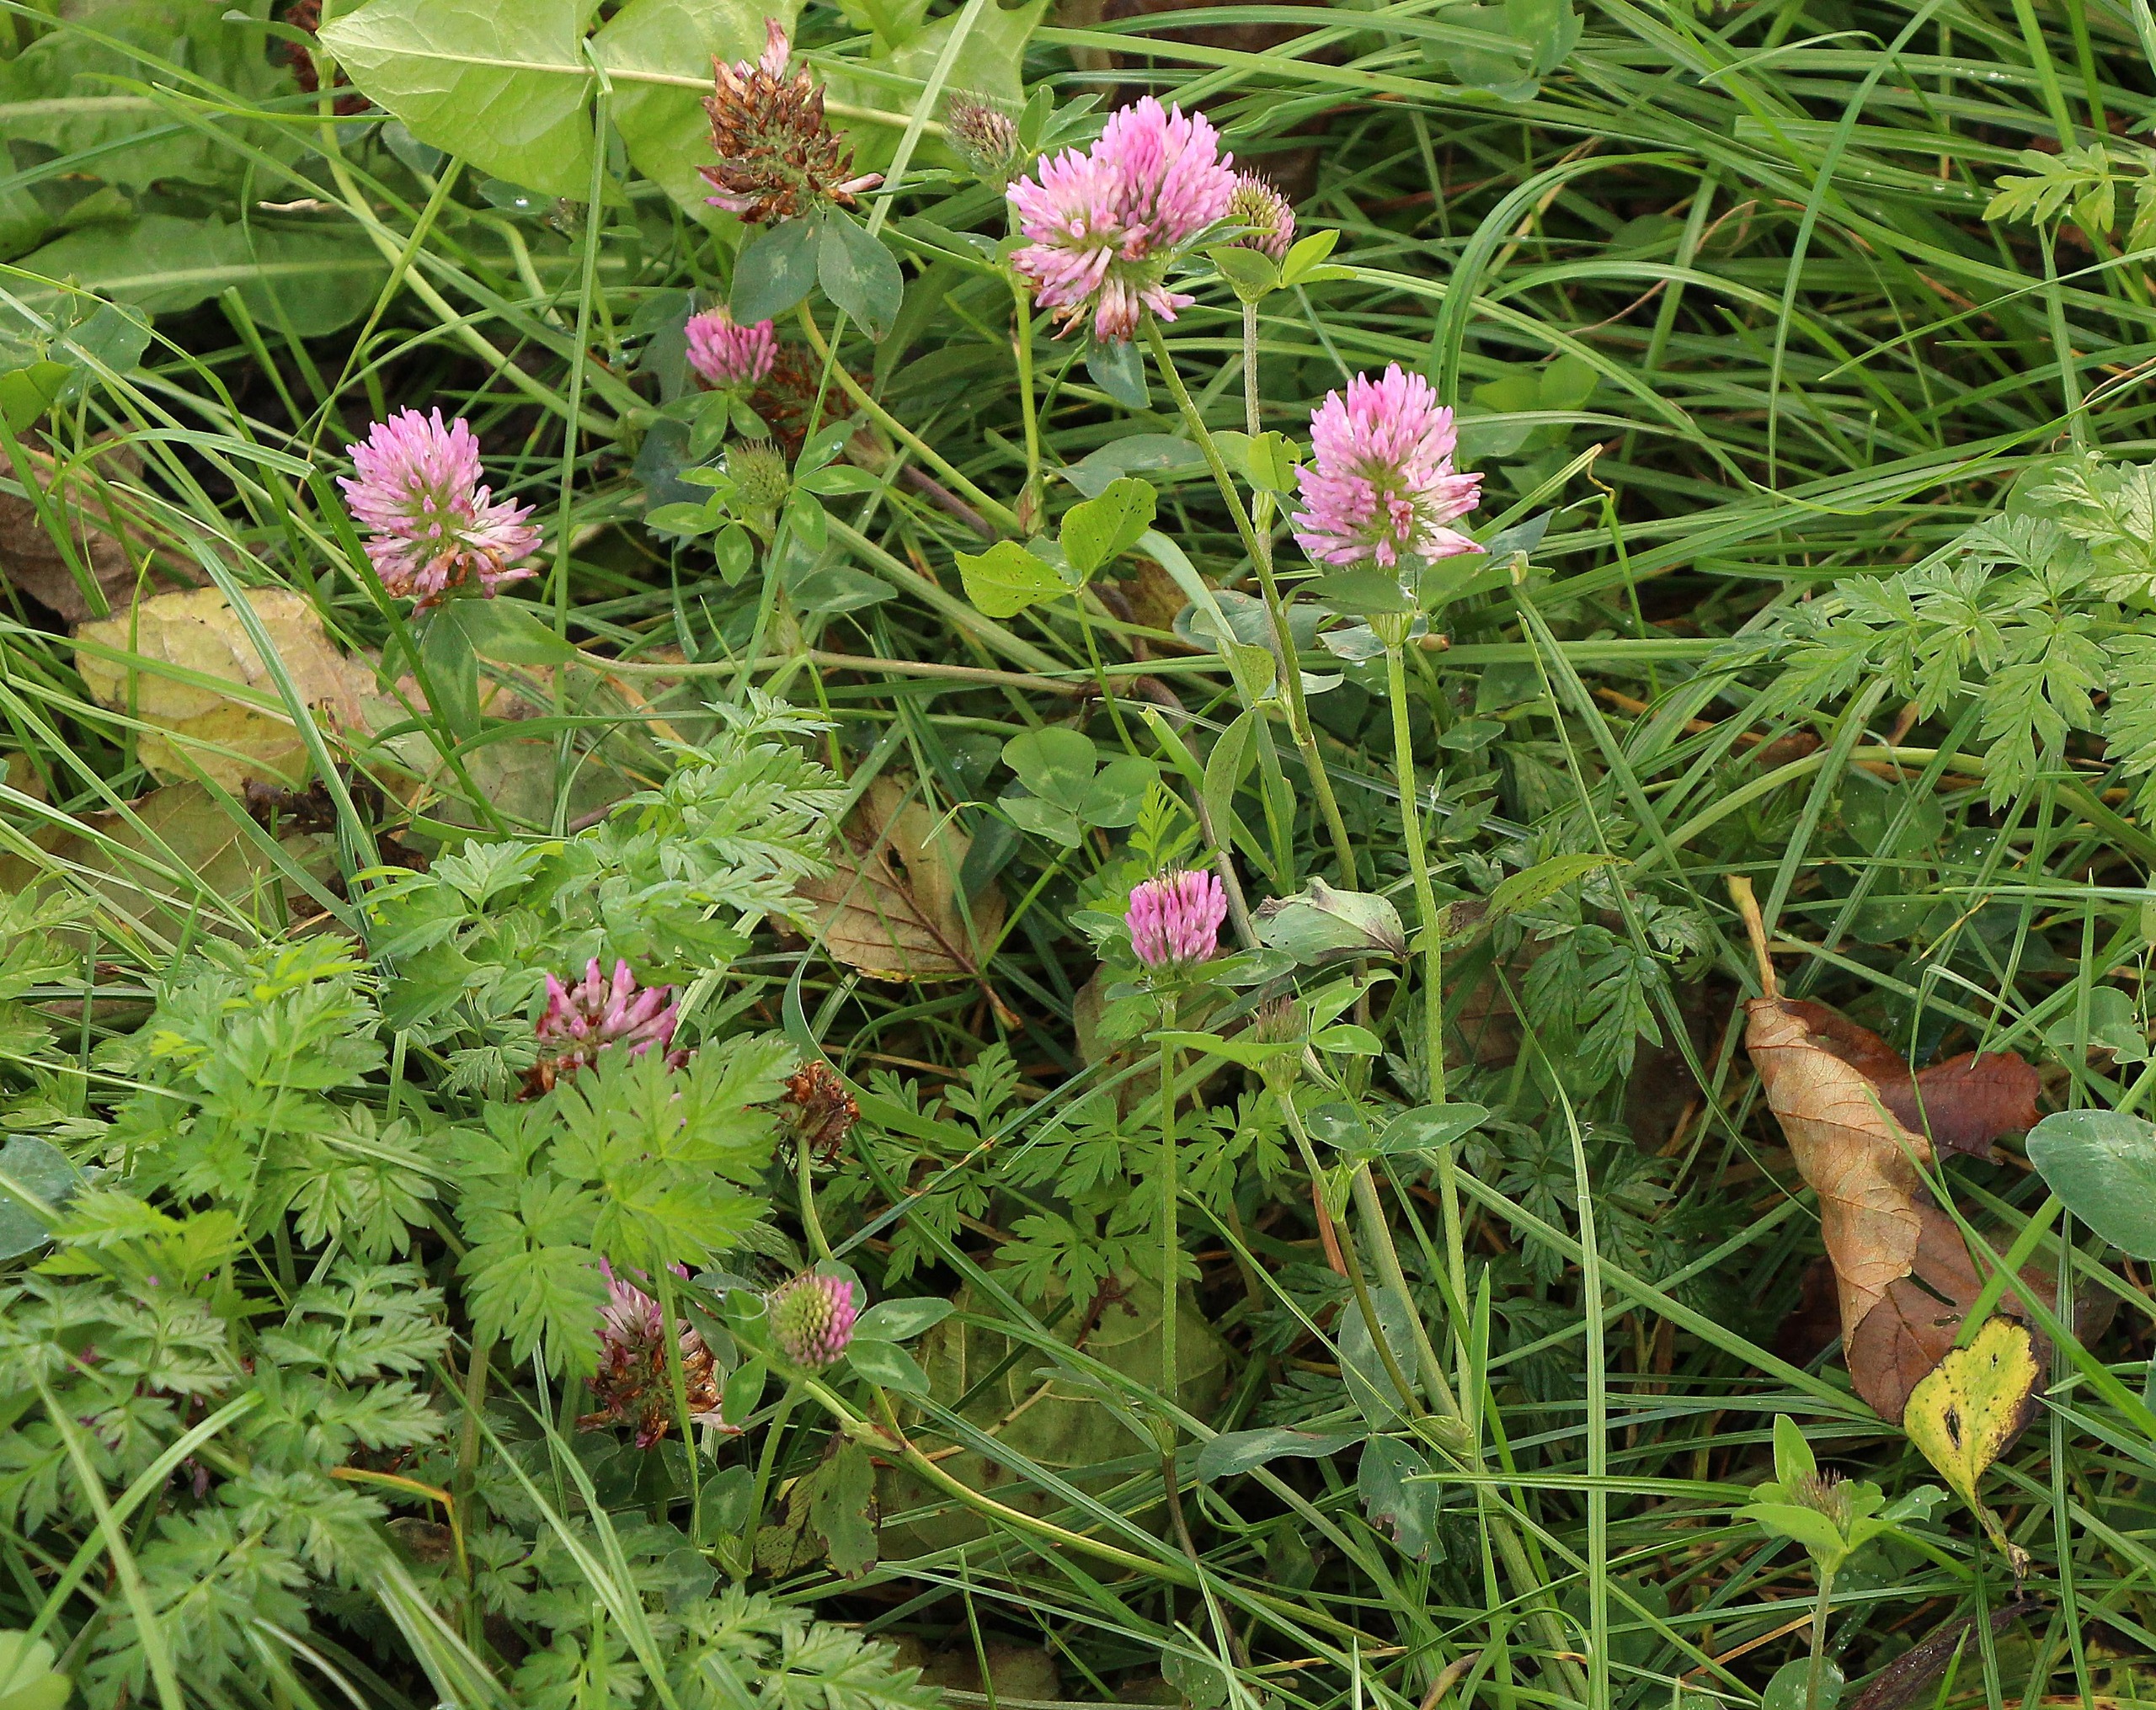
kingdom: Plantae
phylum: Tracheophyta
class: Magnoliopsida
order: Fabales
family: Fabaceae
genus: Trifolium
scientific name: Trifolium pratense
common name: Rød-kløver
